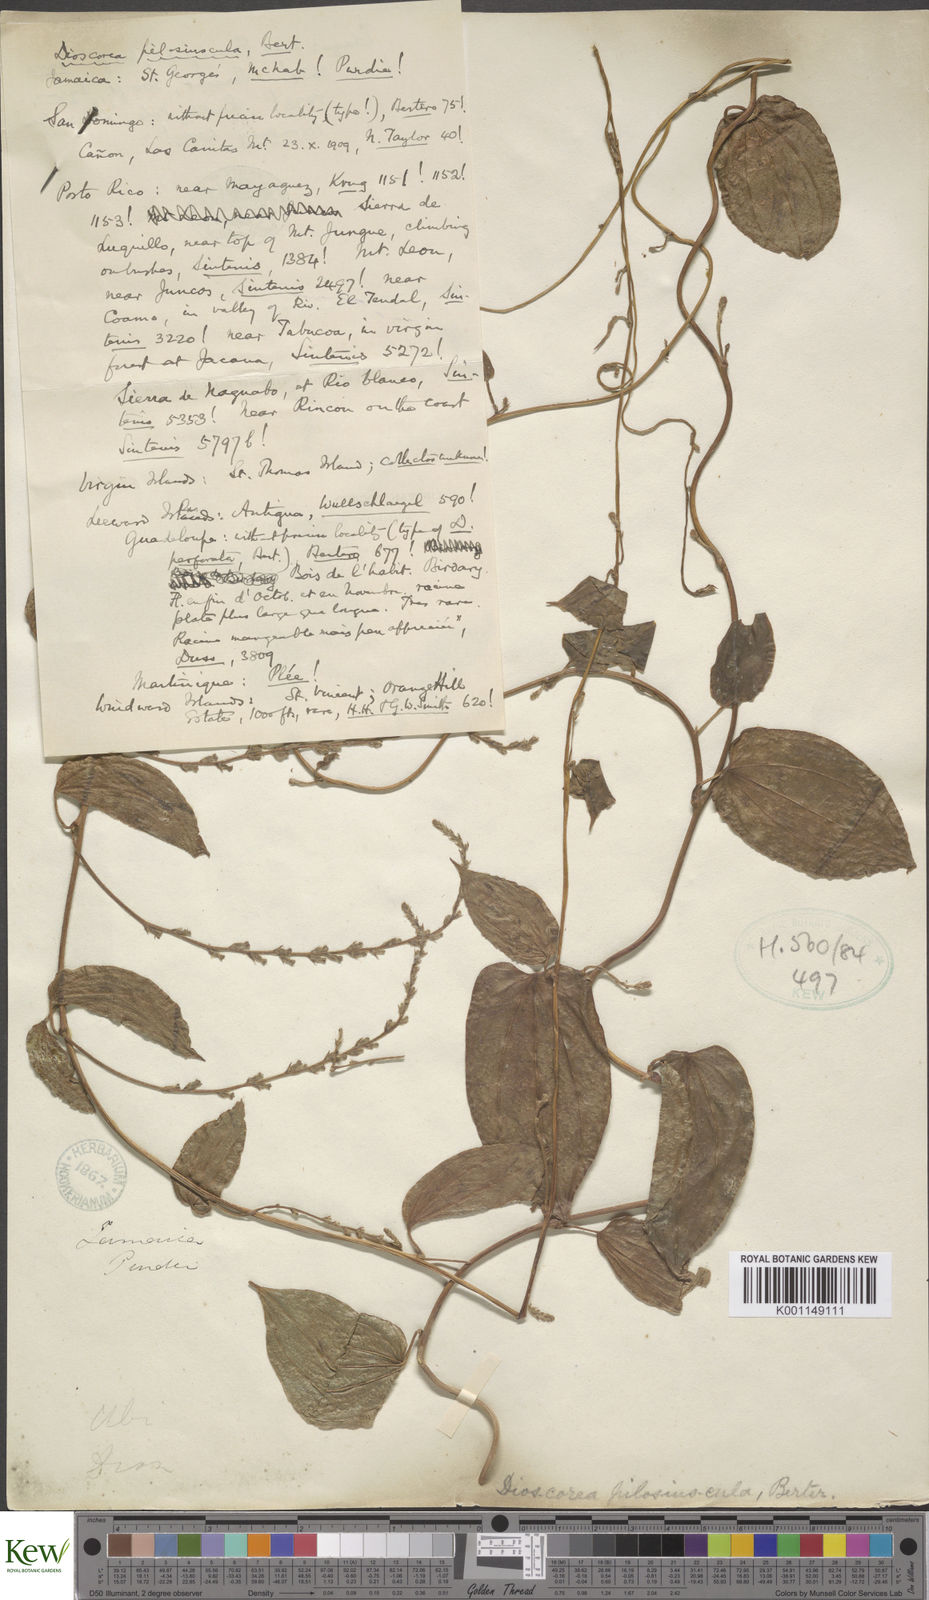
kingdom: Plantae
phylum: Tracheophyta
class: Liliopsida
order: Dioscoreales
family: Dioscoreaceae
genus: Dioscorea
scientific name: Dioscorea pilosiuscula
